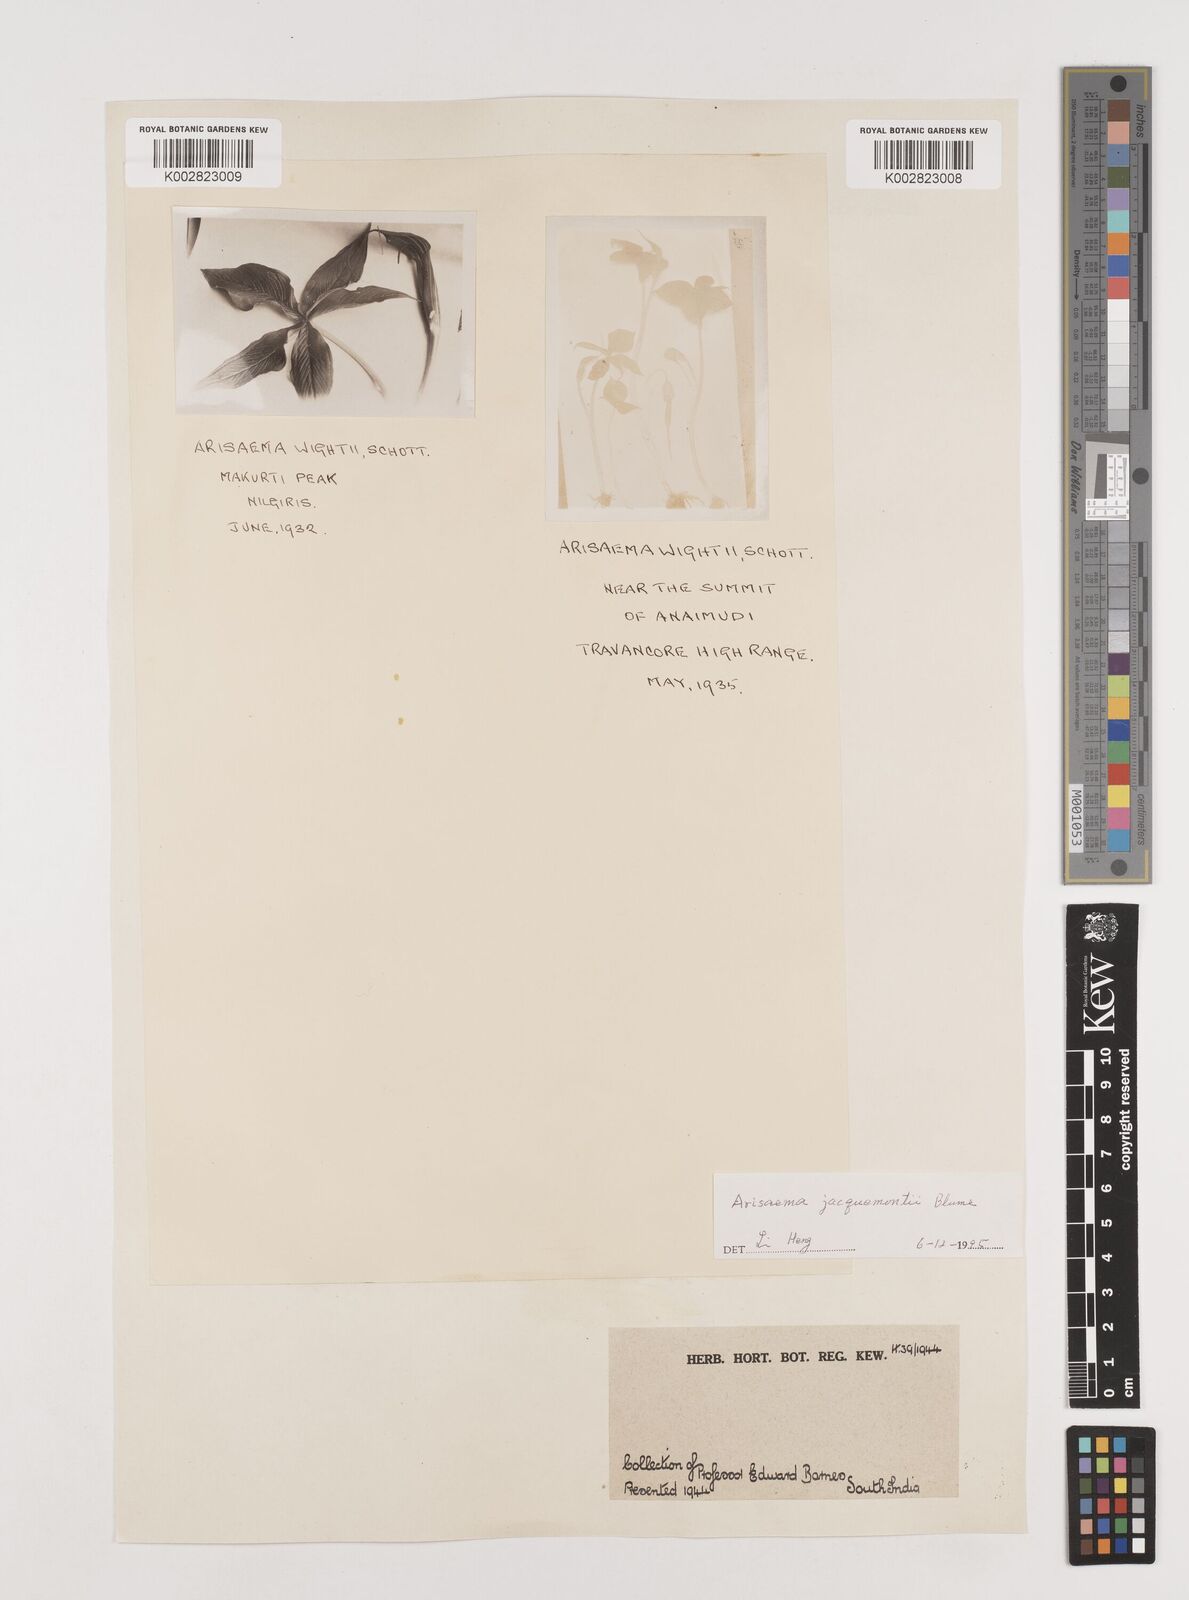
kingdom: Plantae
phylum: Tracheophyta
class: Liliopsida
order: Alismatales
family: Araceae
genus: Arisaema
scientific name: Arisaema jacquemontii
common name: Jacquemont's cobra-lily
